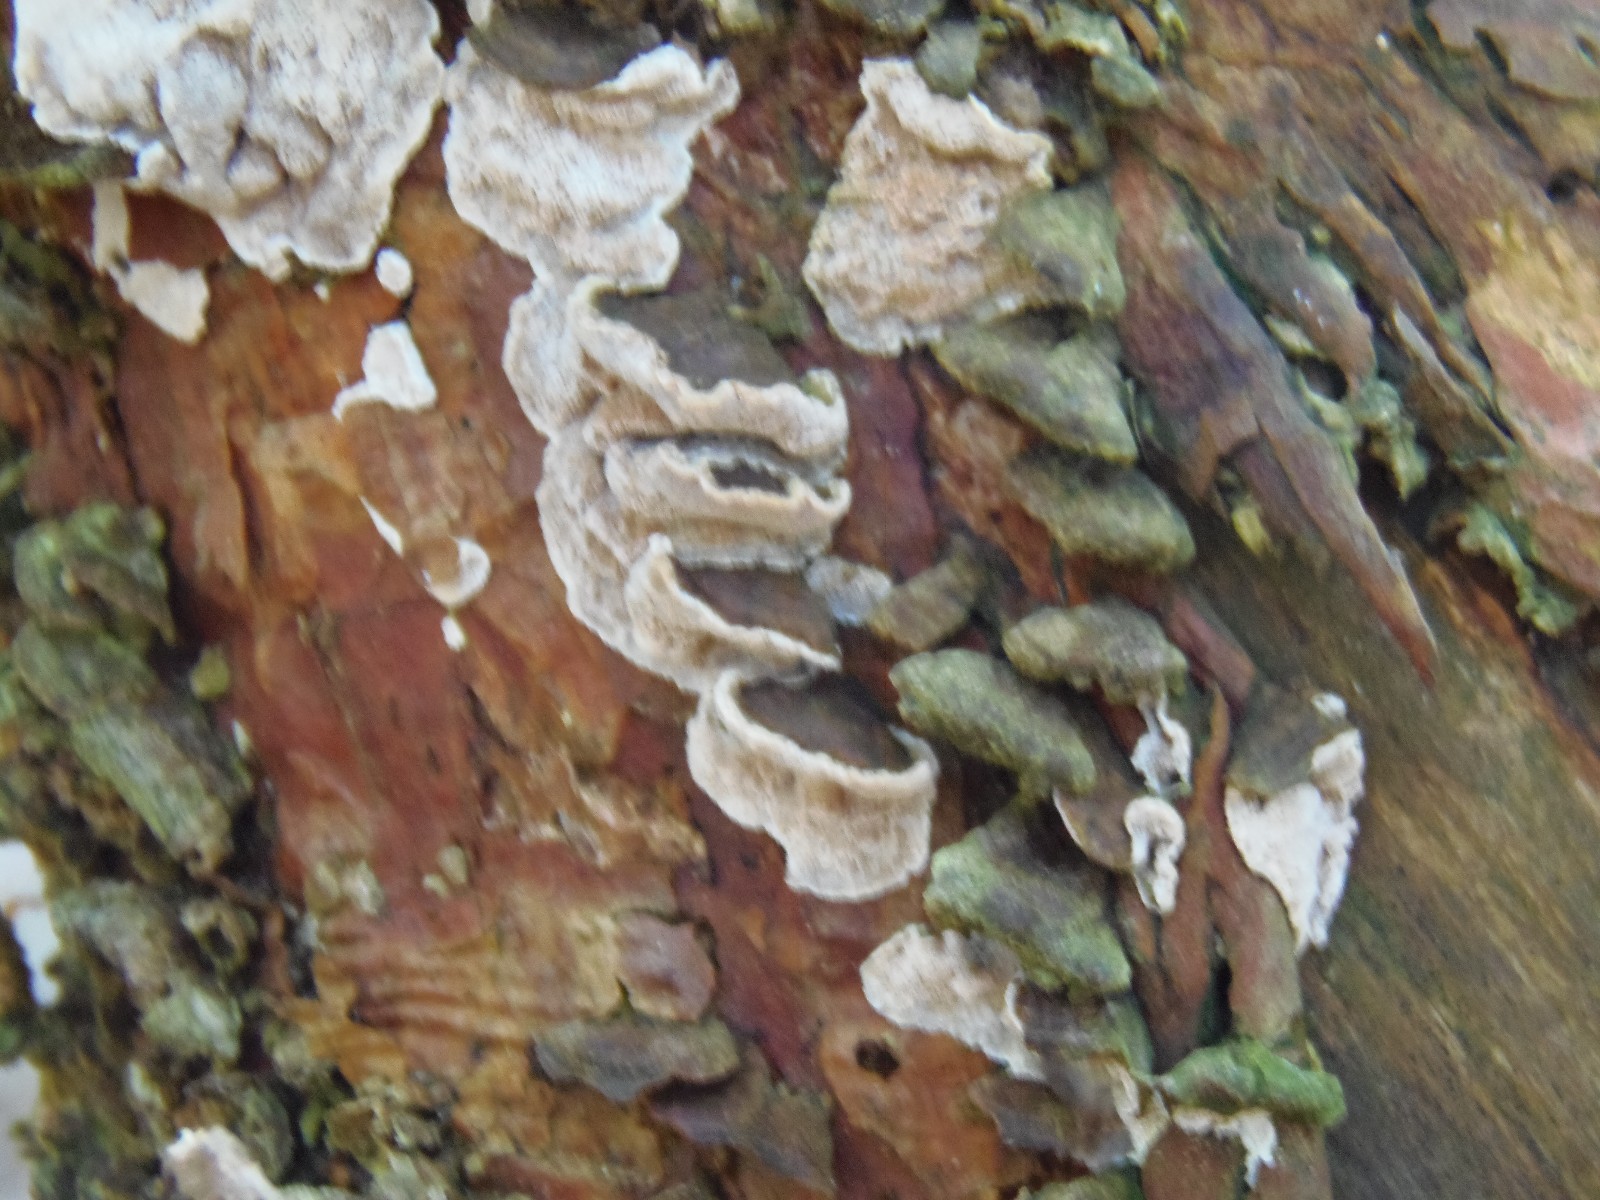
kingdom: Fungi
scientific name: Fungi
